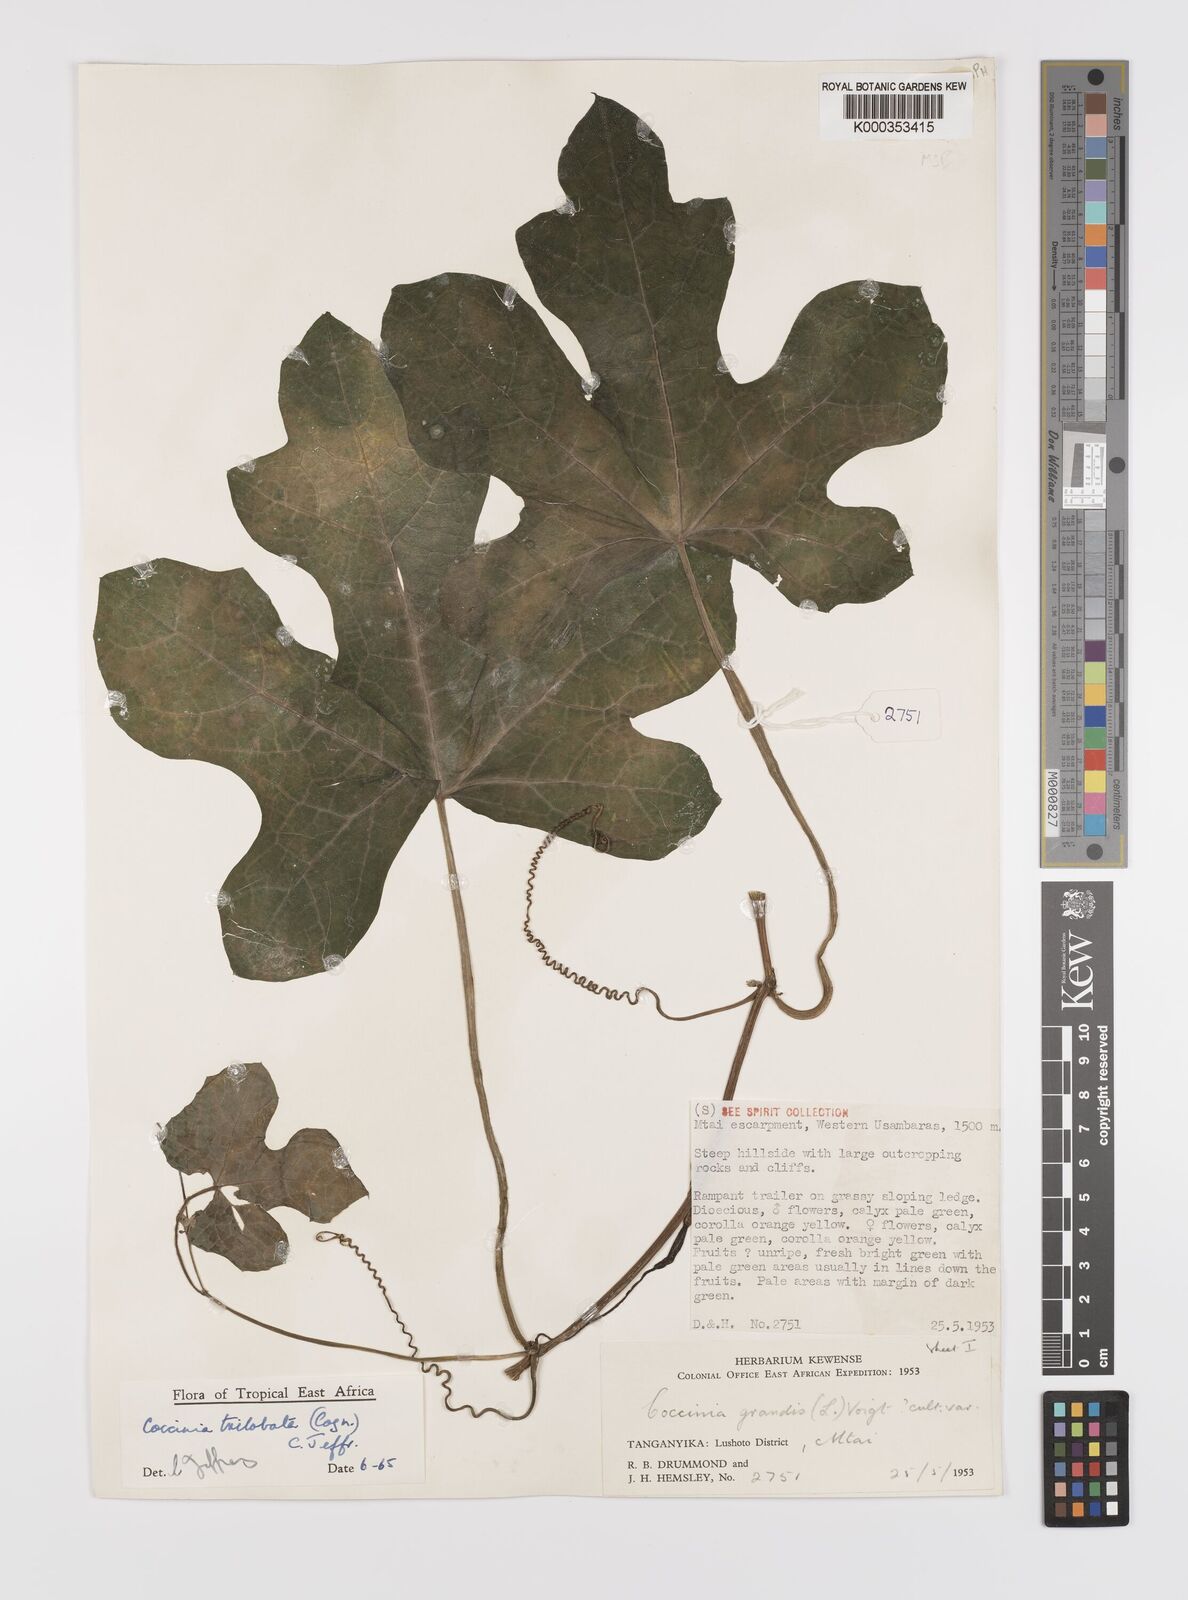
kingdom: Plantae
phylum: Tracheophyta
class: Magnoliopsida
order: Cucurbitales
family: Cucurbitaceae
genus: Coccinia
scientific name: Coccinia trilobata
